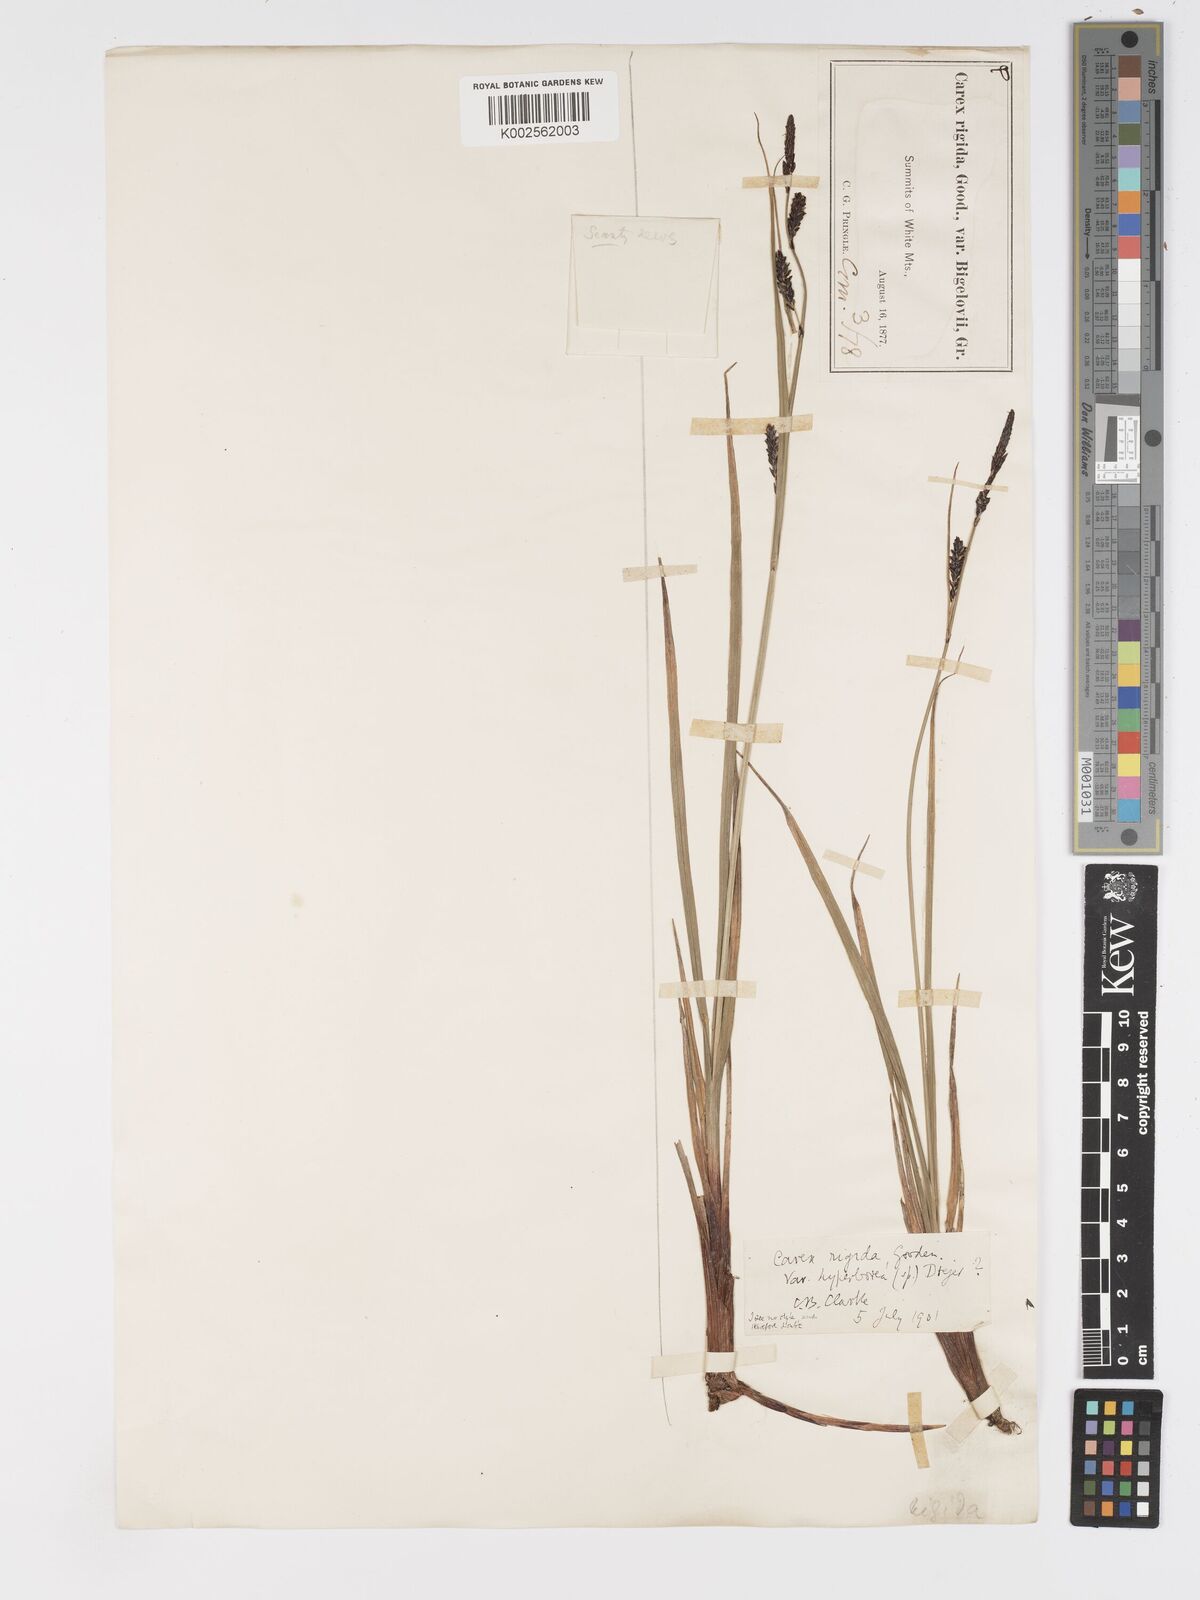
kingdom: Plantae
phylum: Tracheophyta
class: Liliopsida
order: Poales
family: Cyperaceae
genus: Carex
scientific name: Carex bigelowii
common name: Stiff sedge
